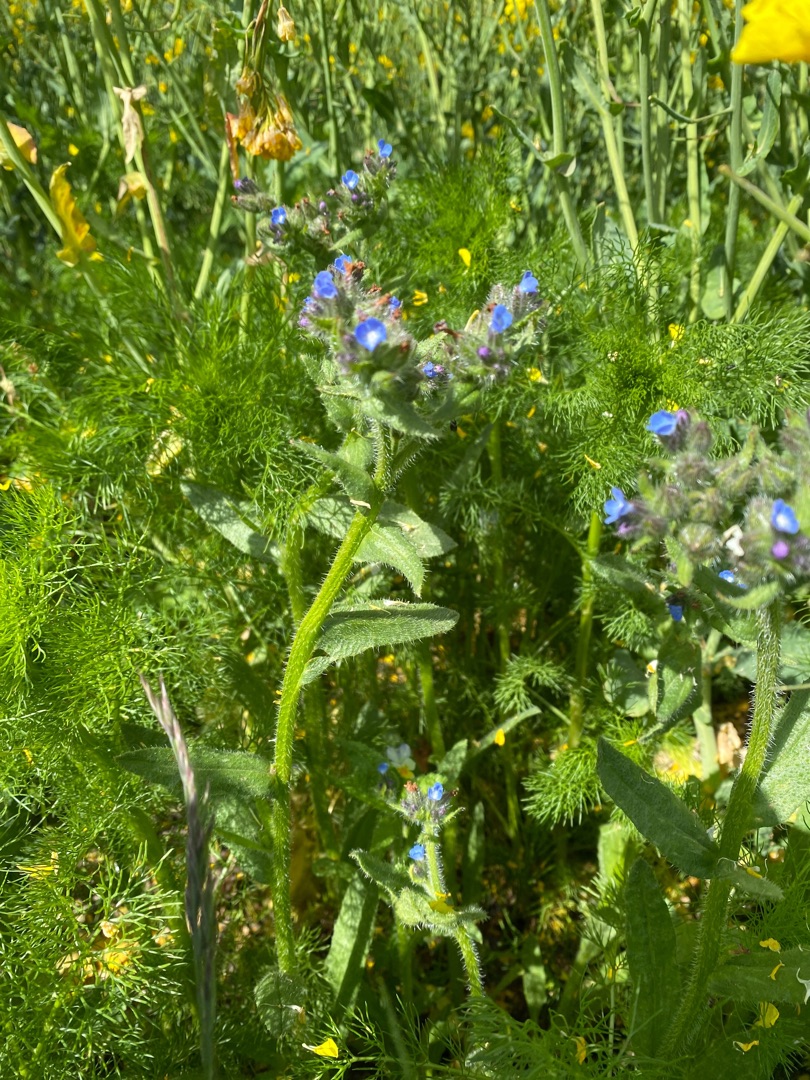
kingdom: Plantae
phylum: Tracheophyta
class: Magnoliopsida
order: Boraginales
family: Boraginaceae
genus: Lycopsis
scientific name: Lycopsis arvensis
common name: Krumhals
